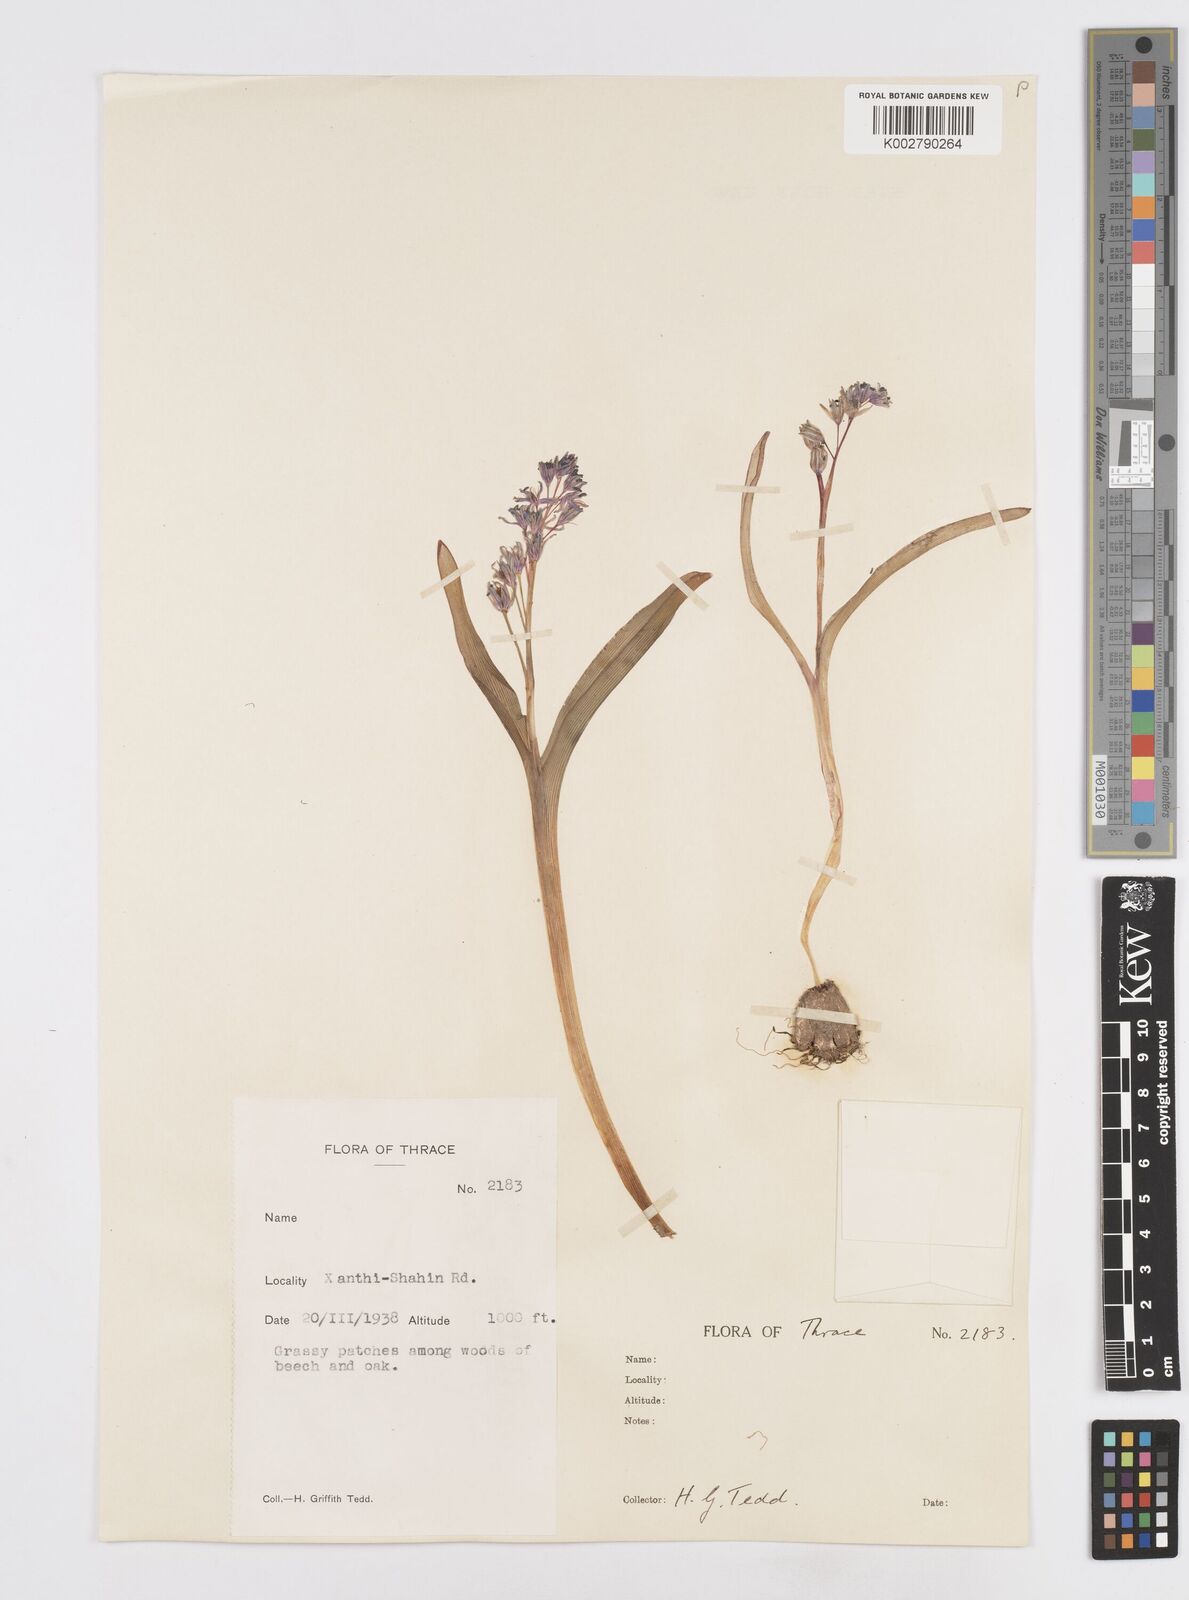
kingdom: Plantae
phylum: Tracheophyta
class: Liliopsida
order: Asparagales
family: Asparagaceae
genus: Scilla
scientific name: Scilla bifolia
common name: Alpine squill
